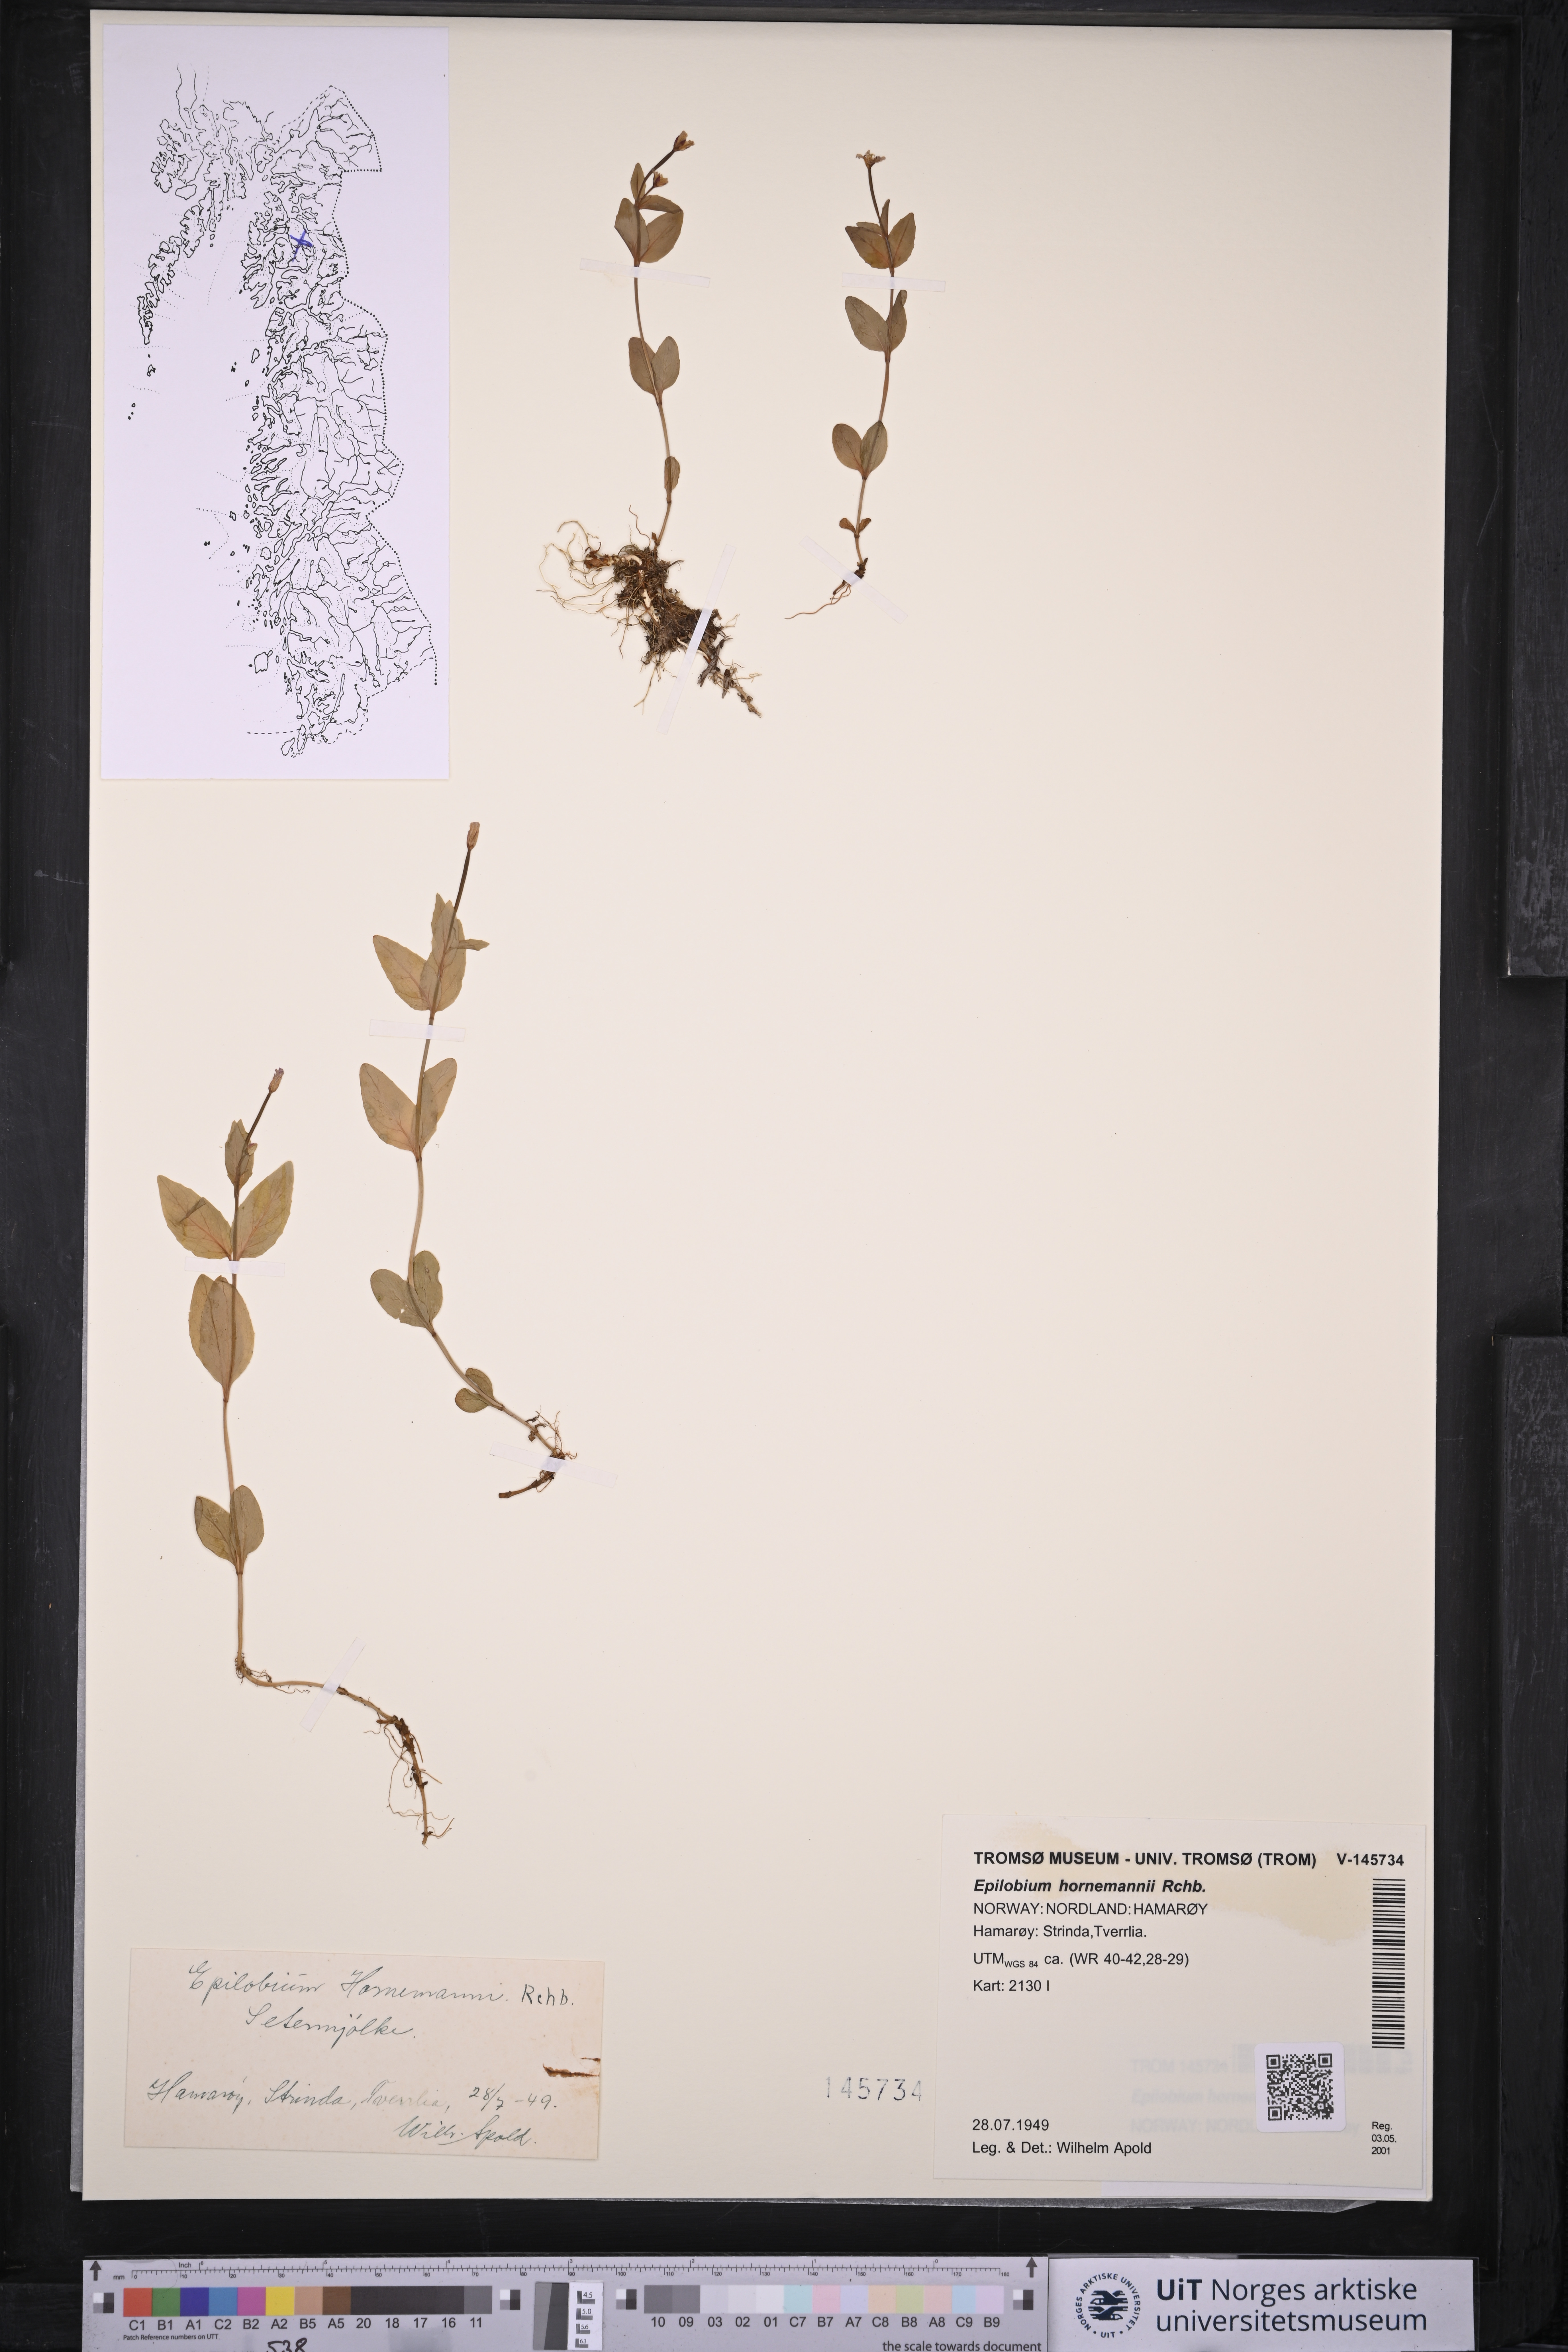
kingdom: Plantae
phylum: Tracheophyta
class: Magnoliopsida
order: Myrtales
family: Onagraceae
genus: Epilobium
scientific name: Epilobium hornemannii
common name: Hornemann's willowherb
